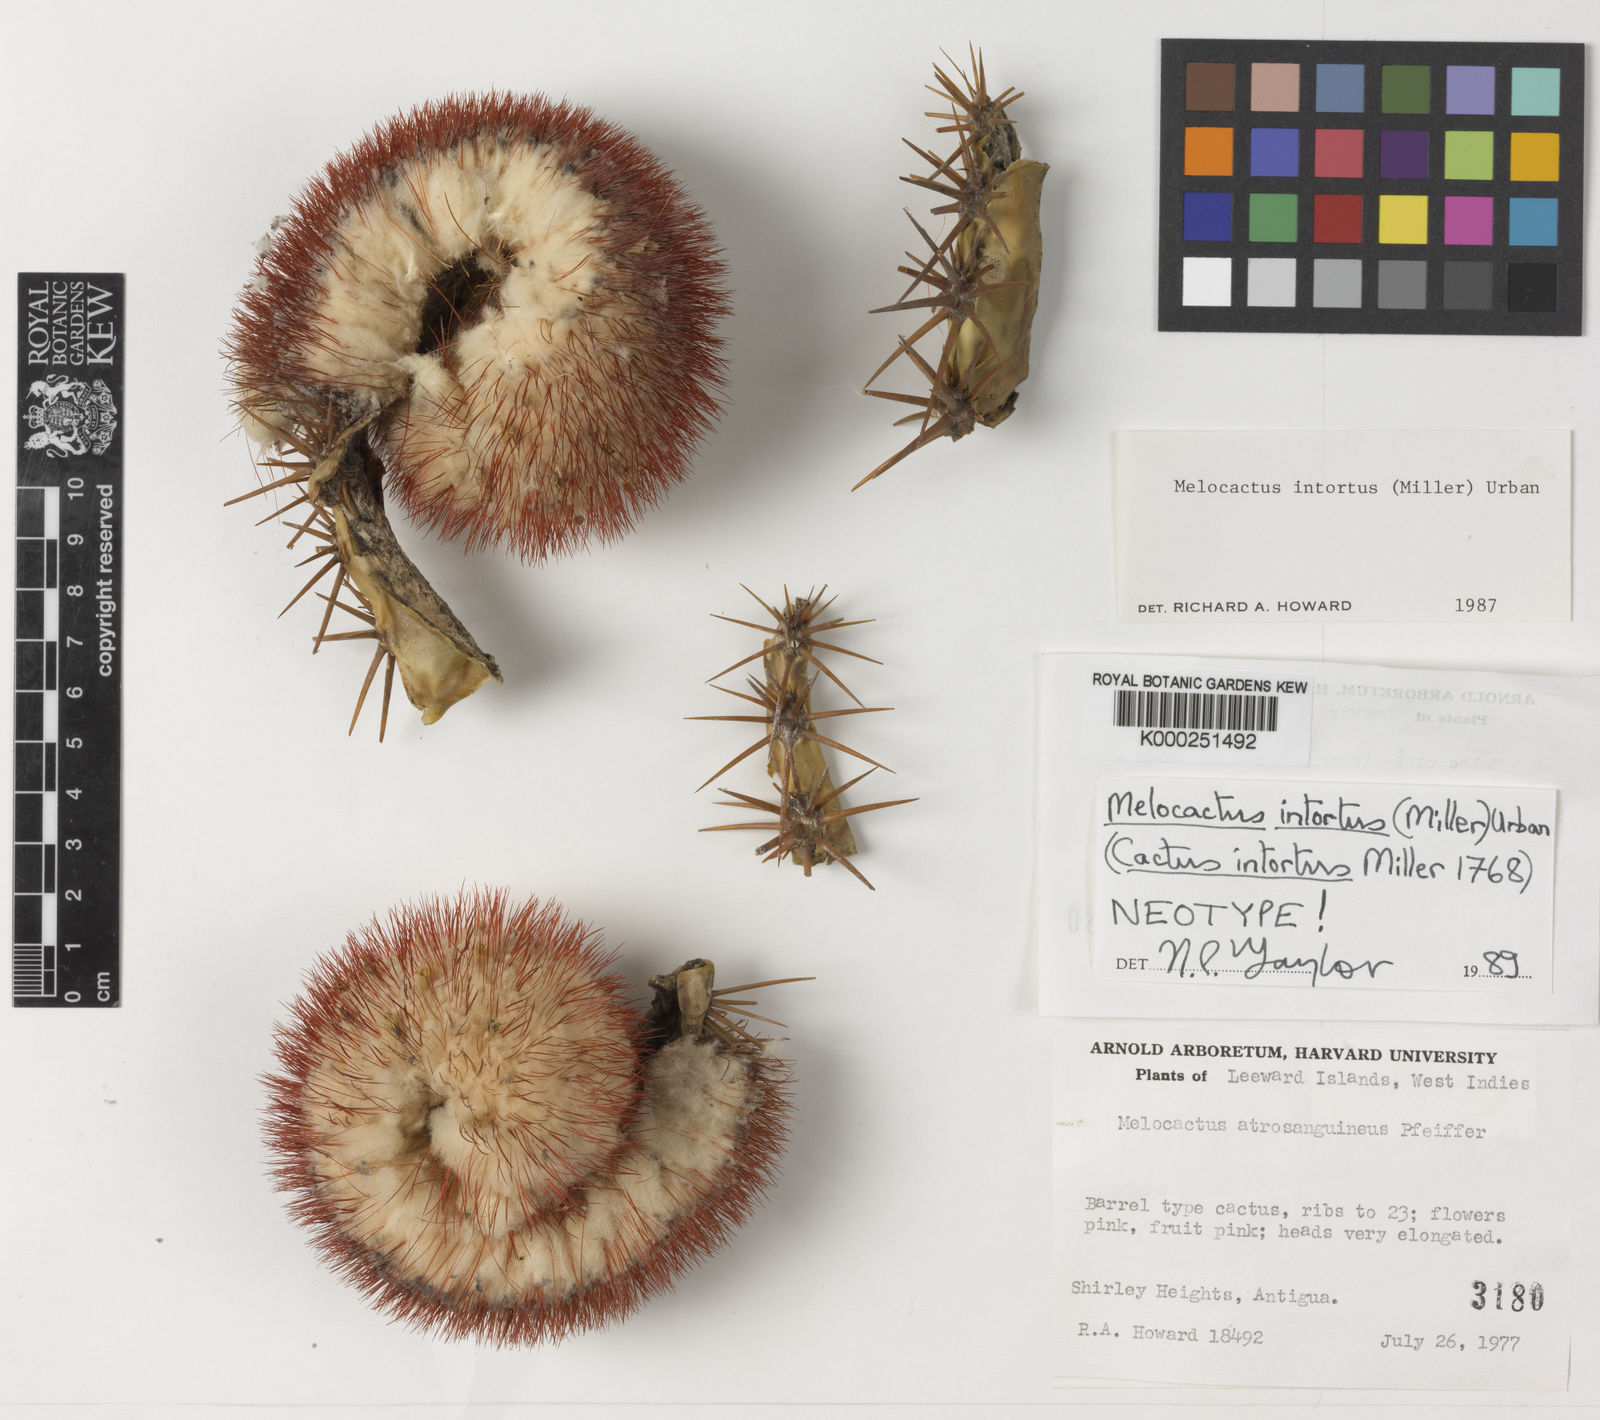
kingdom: Plantae
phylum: Tracheophyta
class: Magnoliopsida
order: Caryophyllales
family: Cactaceae
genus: Melocactus
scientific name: Melocactus intortus
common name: Barrel cactus
